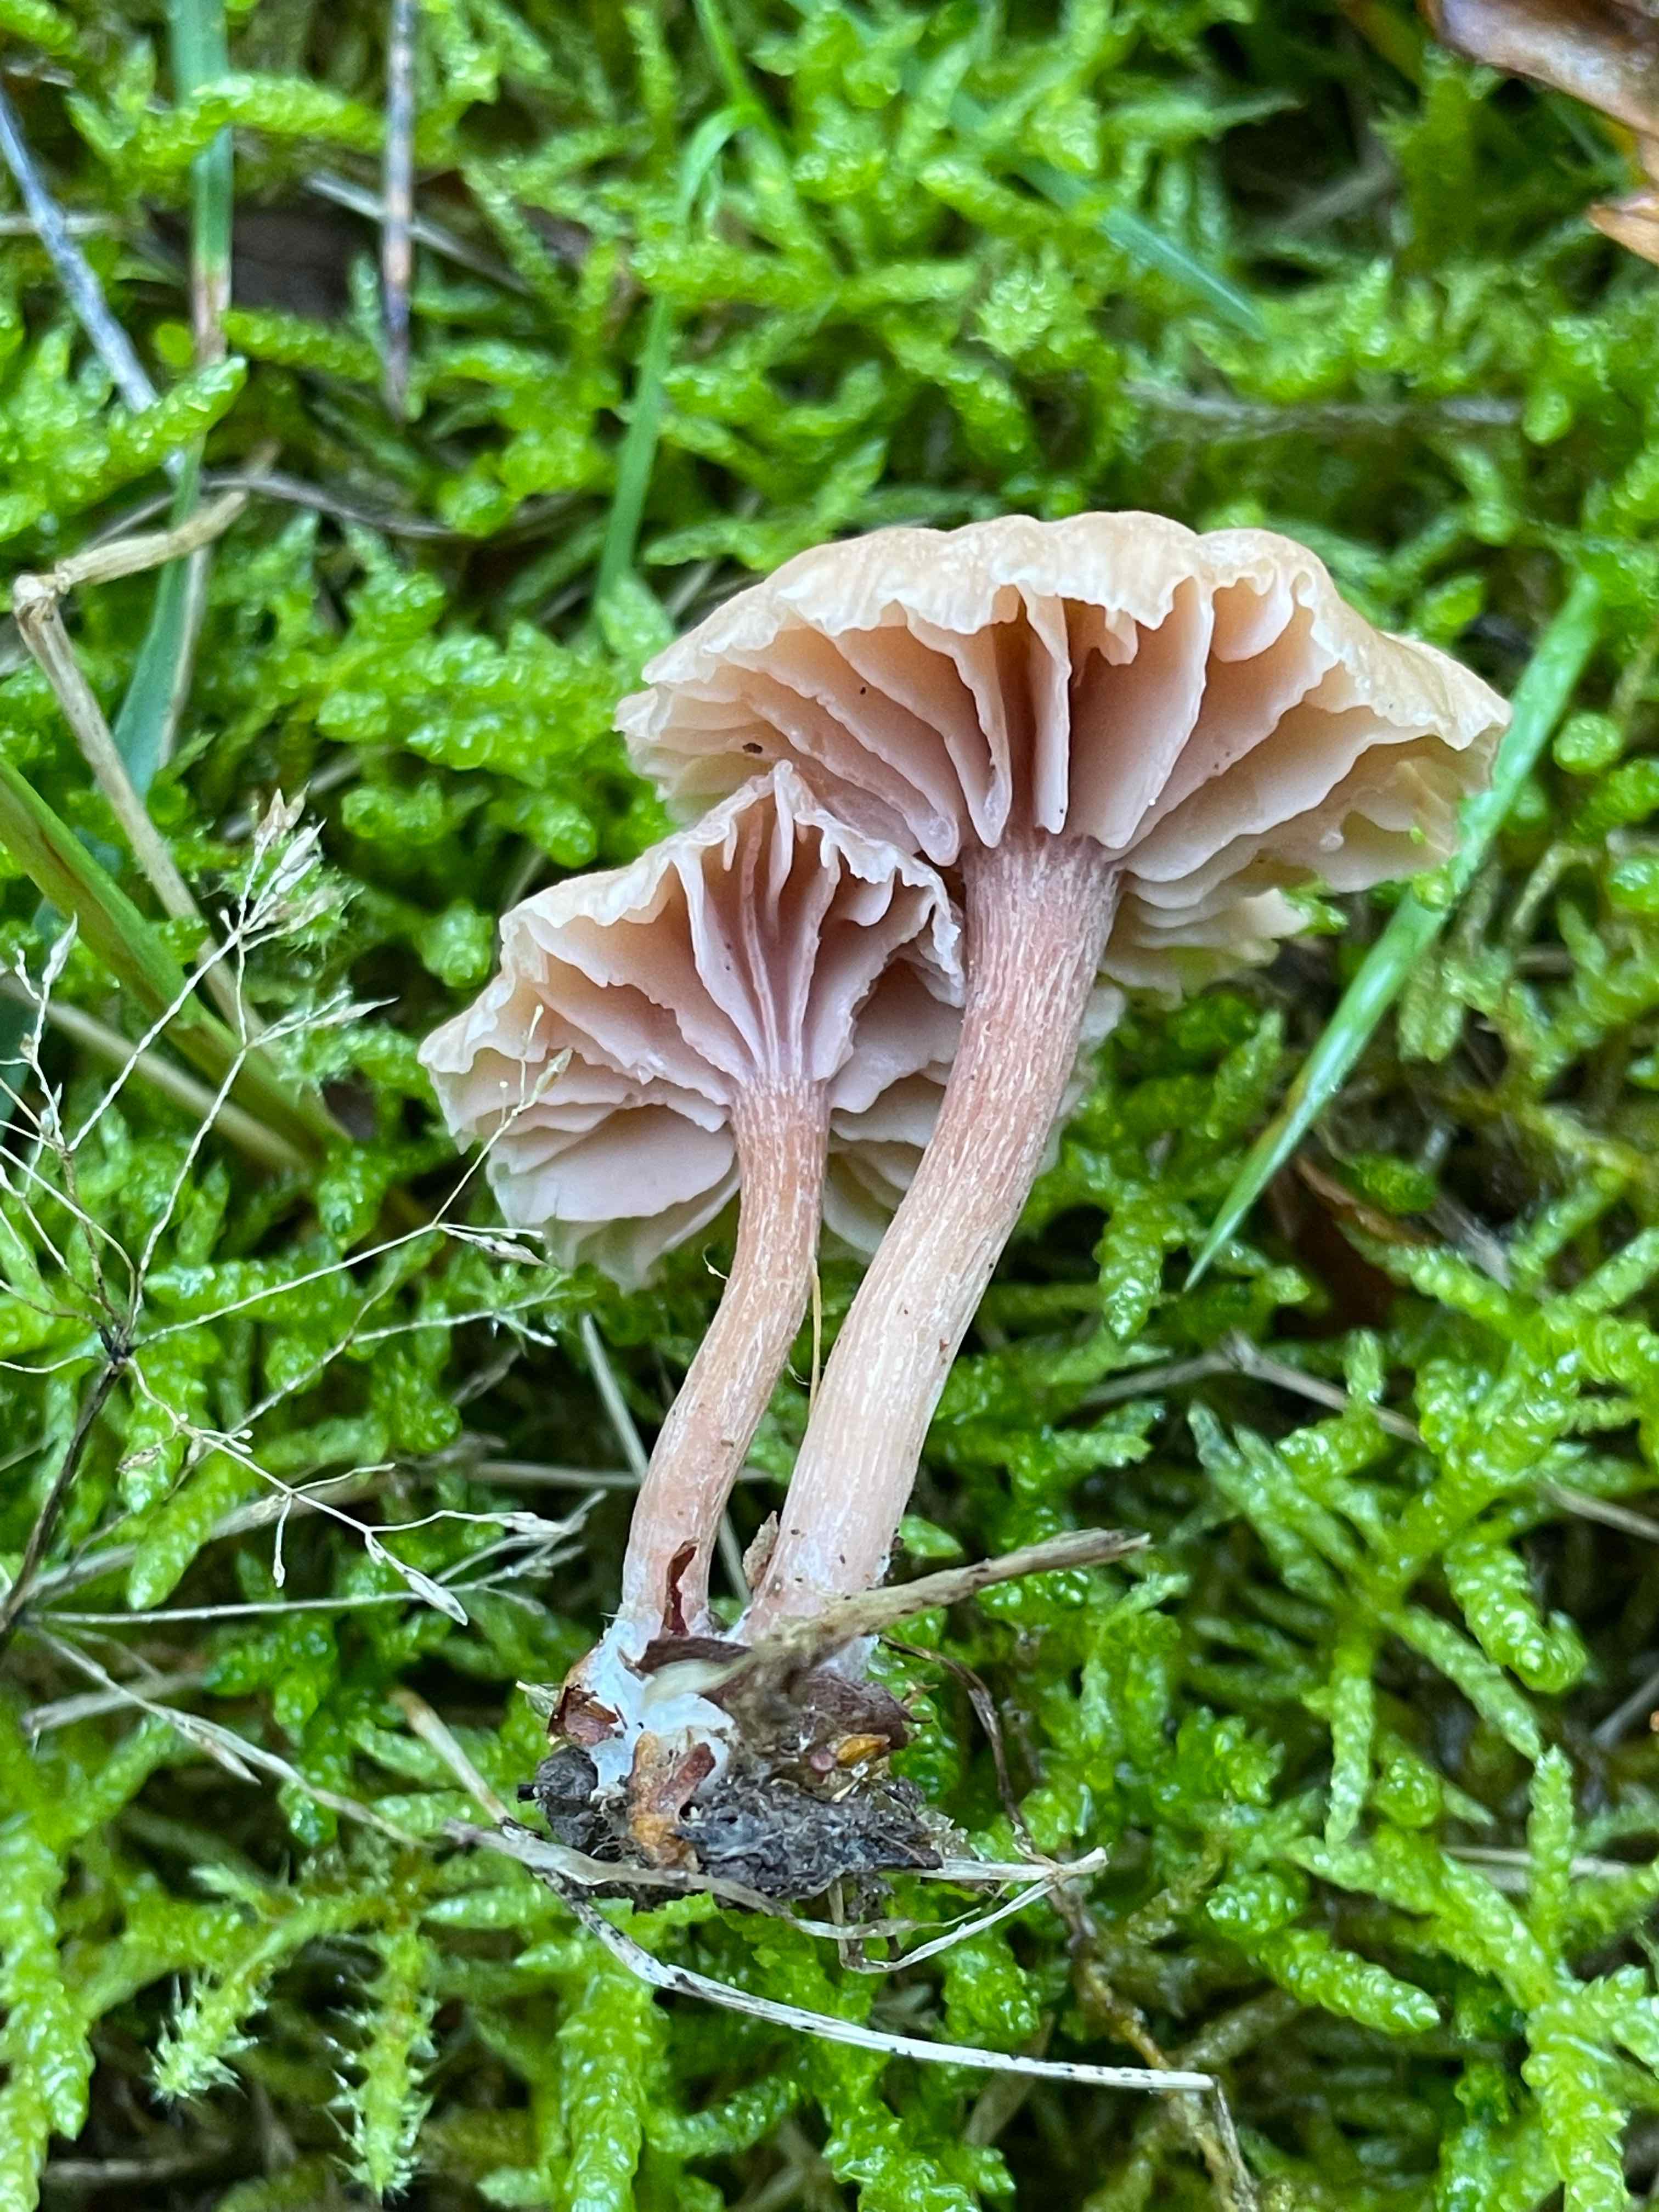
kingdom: Fungi
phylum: Basidiomycota
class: Agaricomycetes
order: Agaricales
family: Hydnangiaceae
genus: Laccaria
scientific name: Laccaria laccata
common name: rød ametysthat
